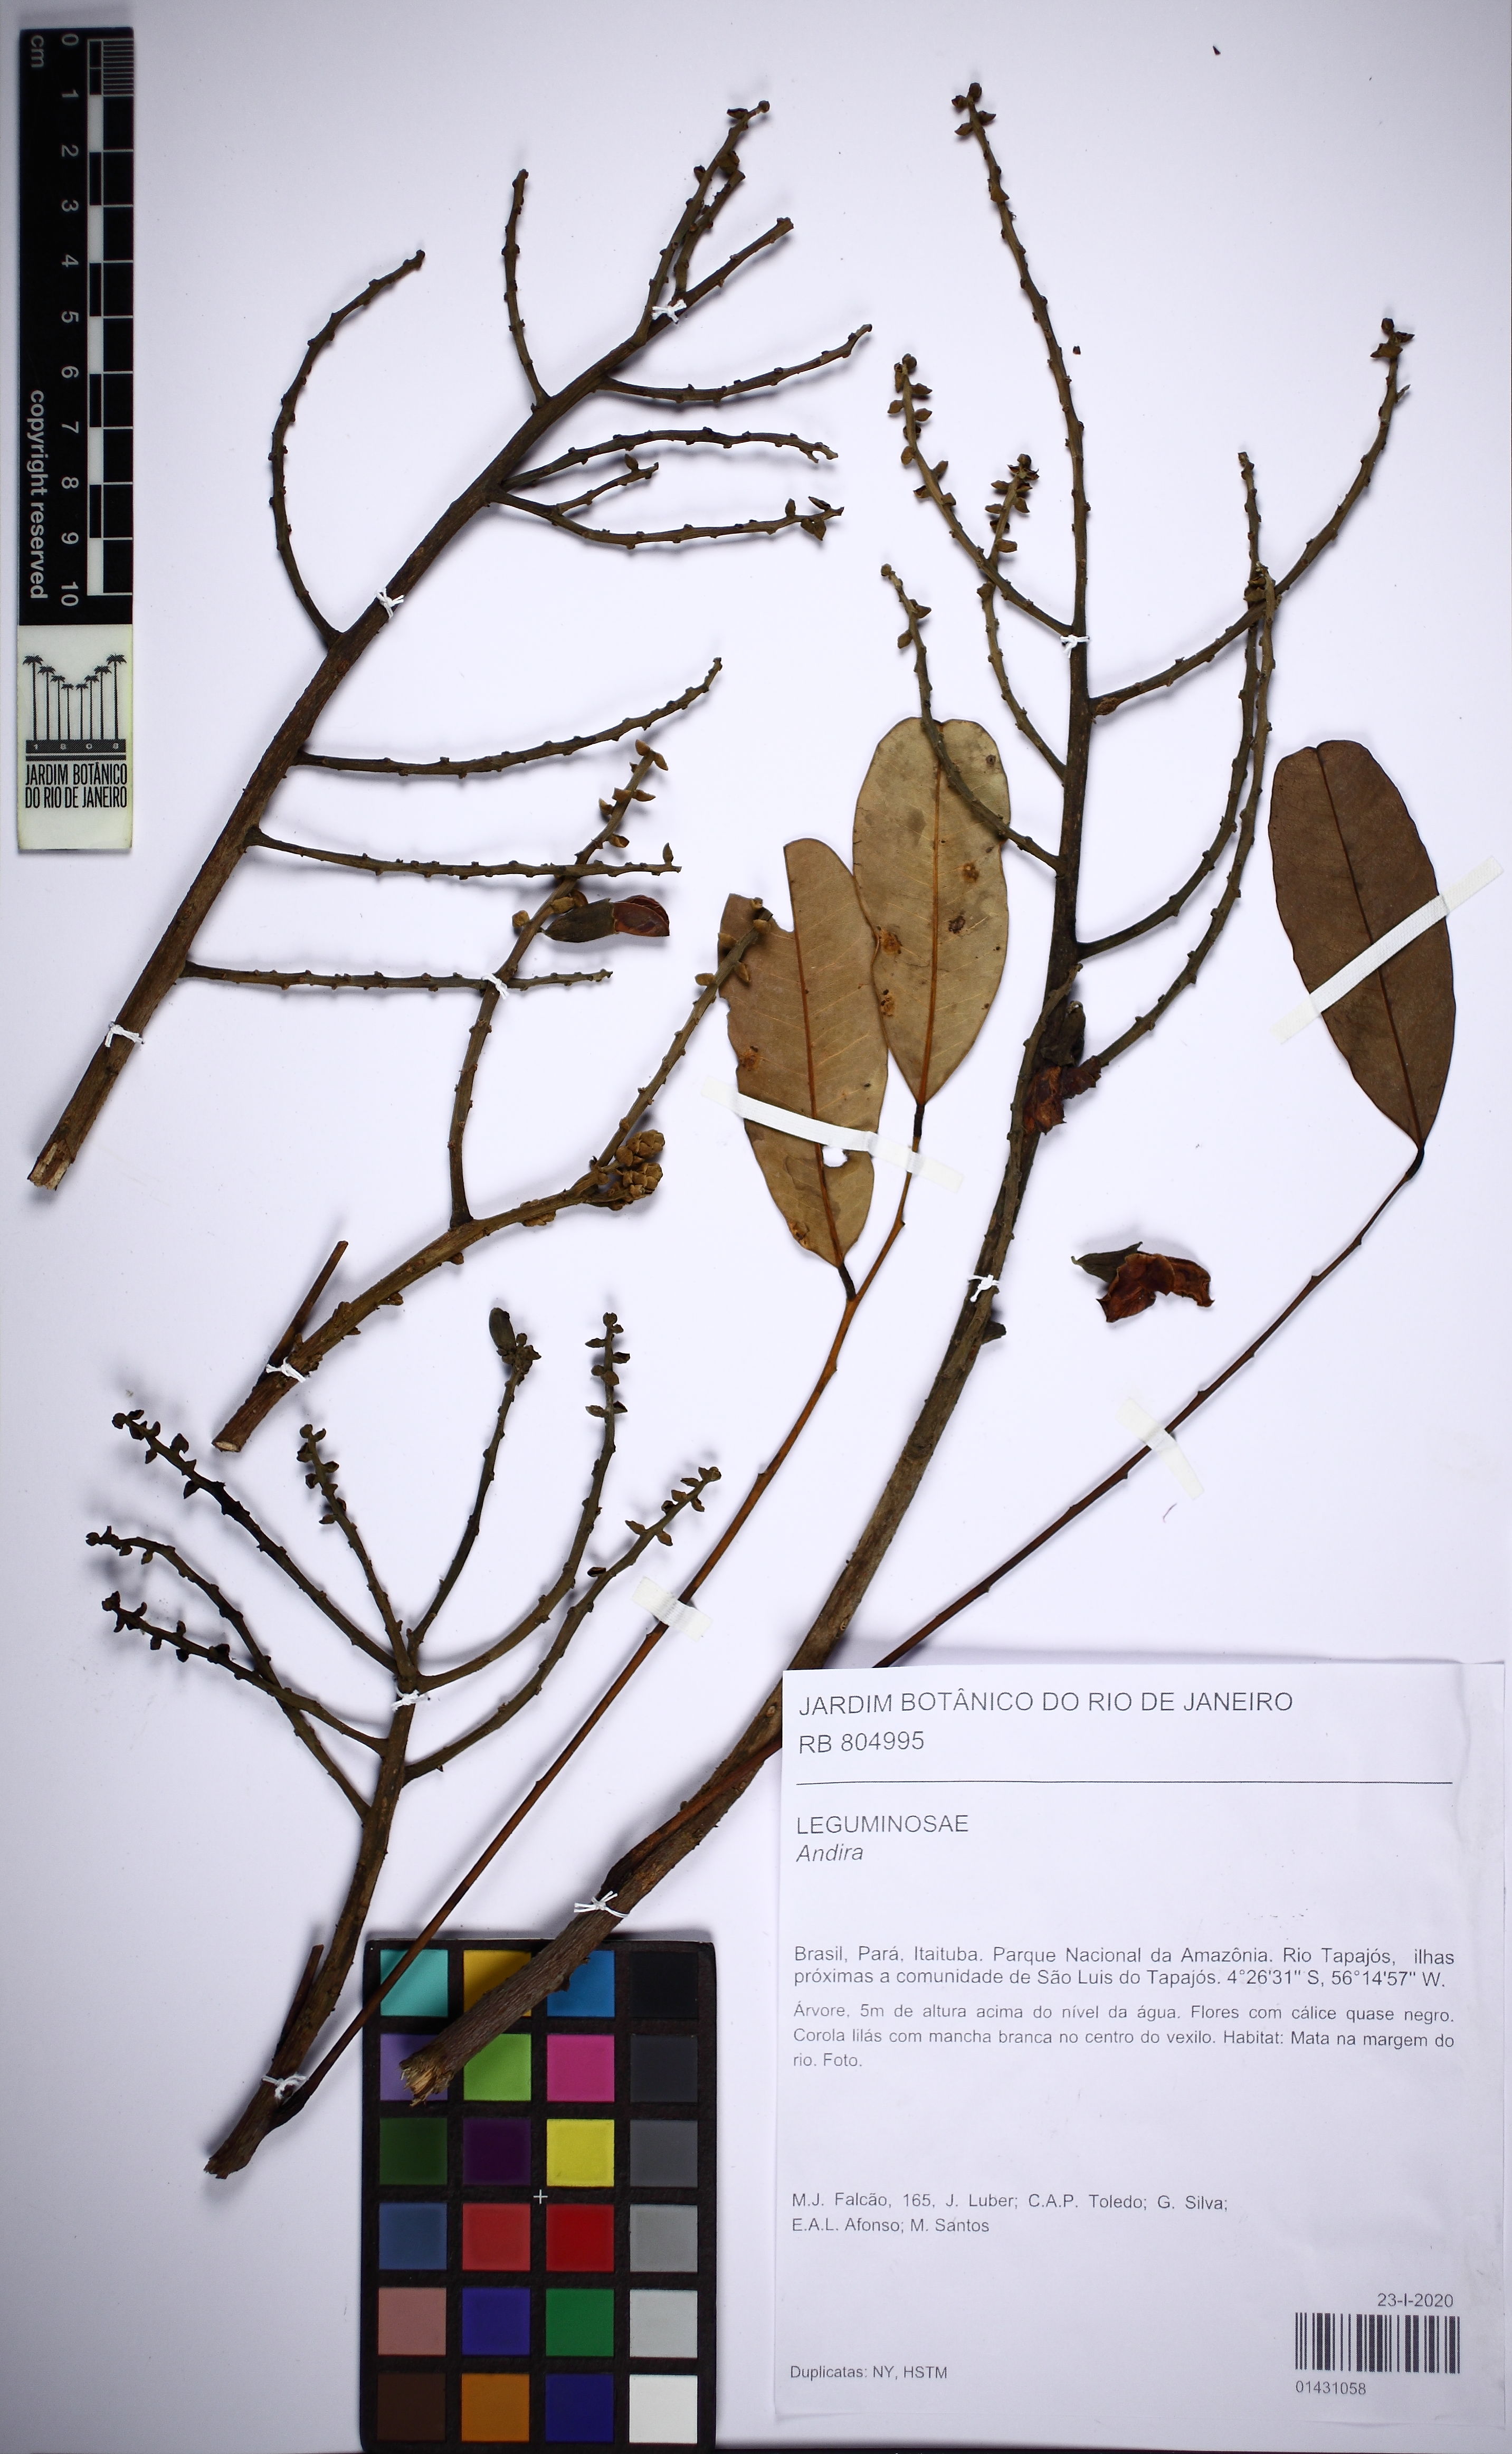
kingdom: Plantae
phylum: Tracheophyta
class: Magnoliopsida
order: Fabales
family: Fabaceae
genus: Andira
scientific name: Andira
